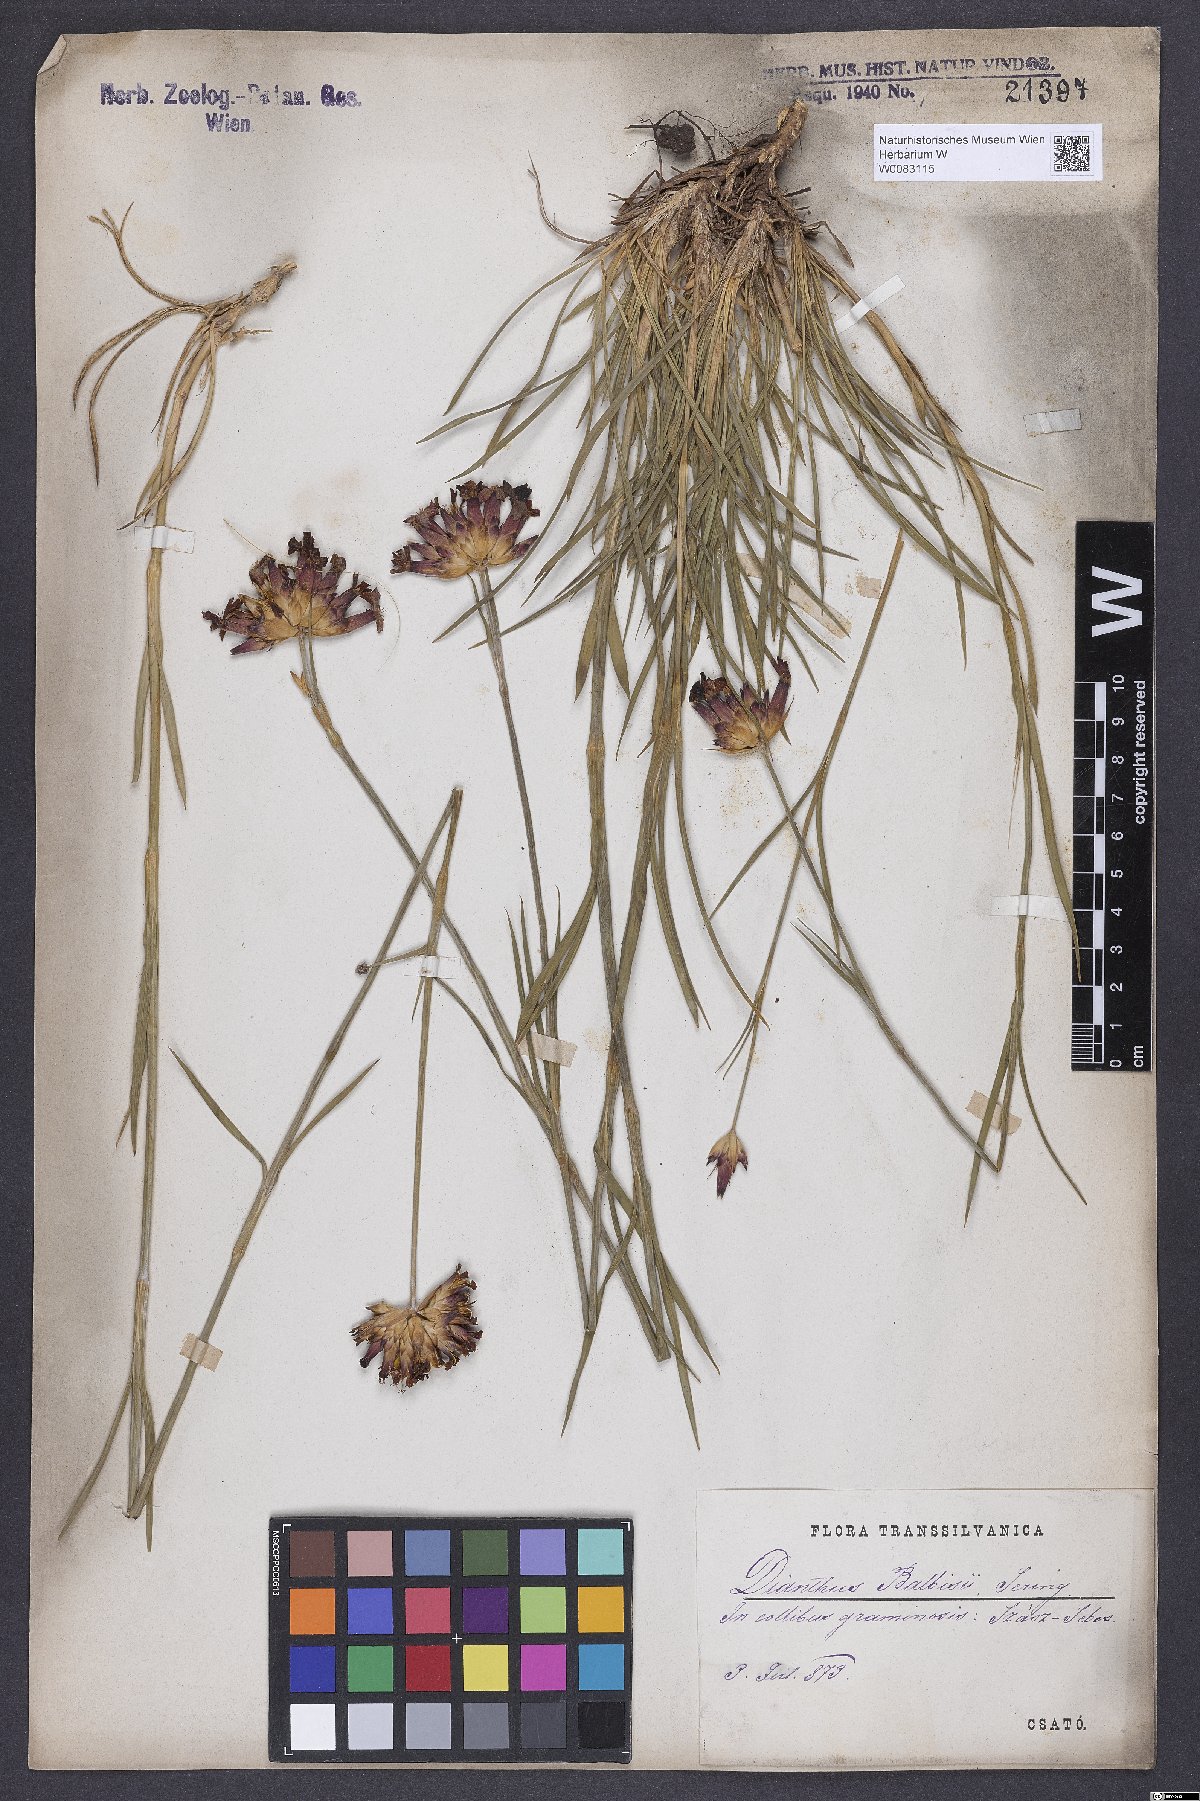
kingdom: Plantae
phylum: Tracheophyta
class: Magnoliopsida
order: Caryophyllales
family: Caryophyllaceae
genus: Dianthus
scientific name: Dianthus crassipes
